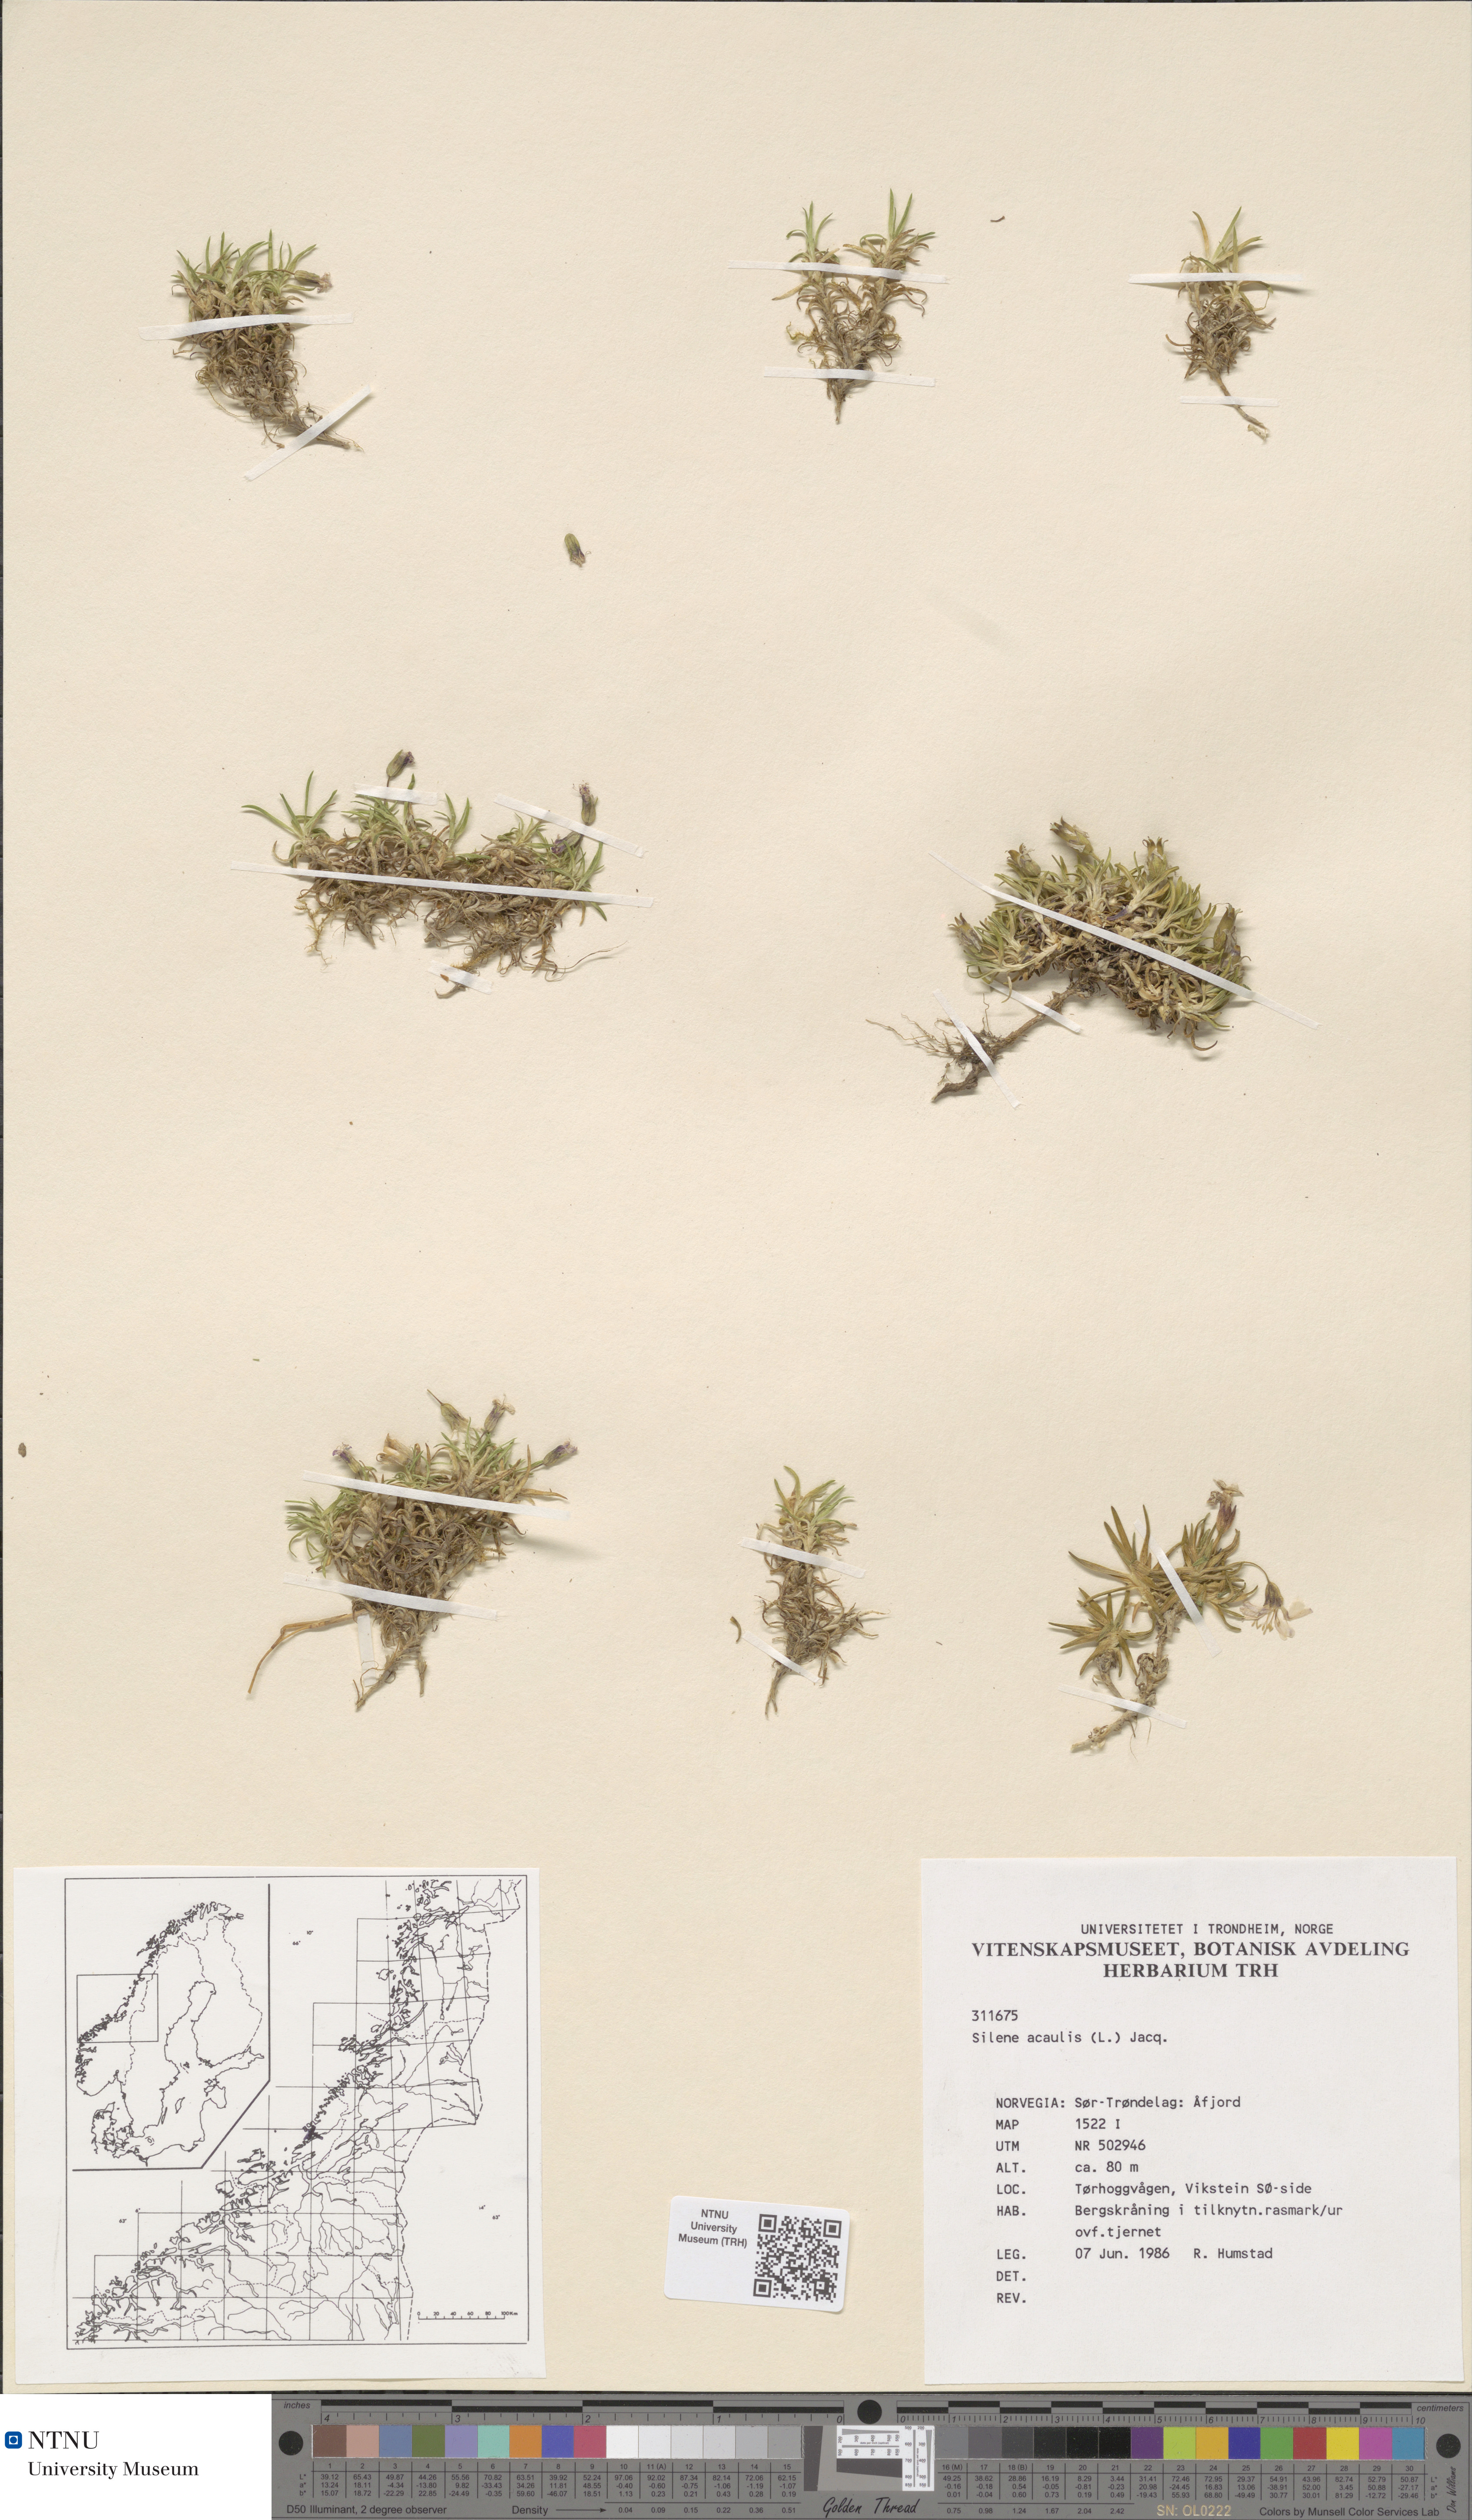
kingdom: Plantae
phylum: Tracheophyta
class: Magnoliopsida
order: Caryophyllales
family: Caryophyllaceae
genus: Silene
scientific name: Silene acaulis
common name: Moss campion
